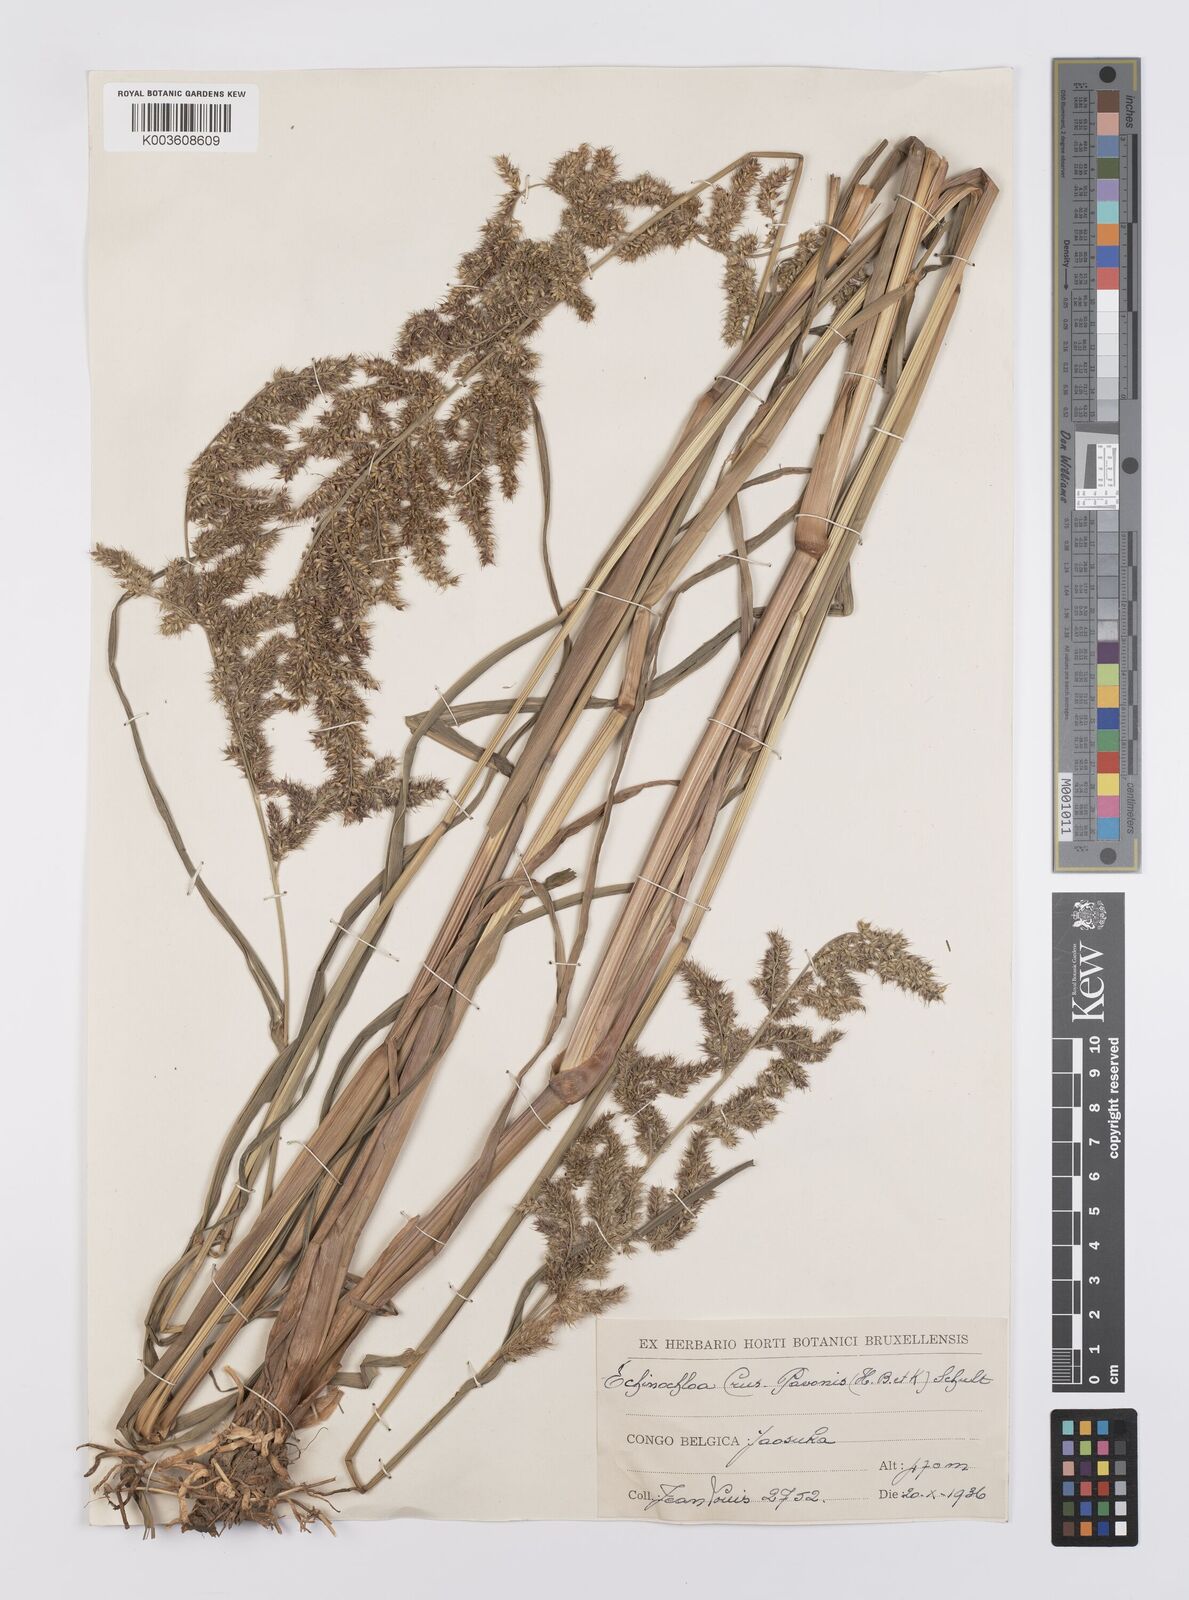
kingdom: Plantae
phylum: Tracheophyta
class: Liliopsida
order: Poales
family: Poaceae
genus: Echinochloa
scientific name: Echinochloa crus-pavonis
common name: Gulf cockspur grass
